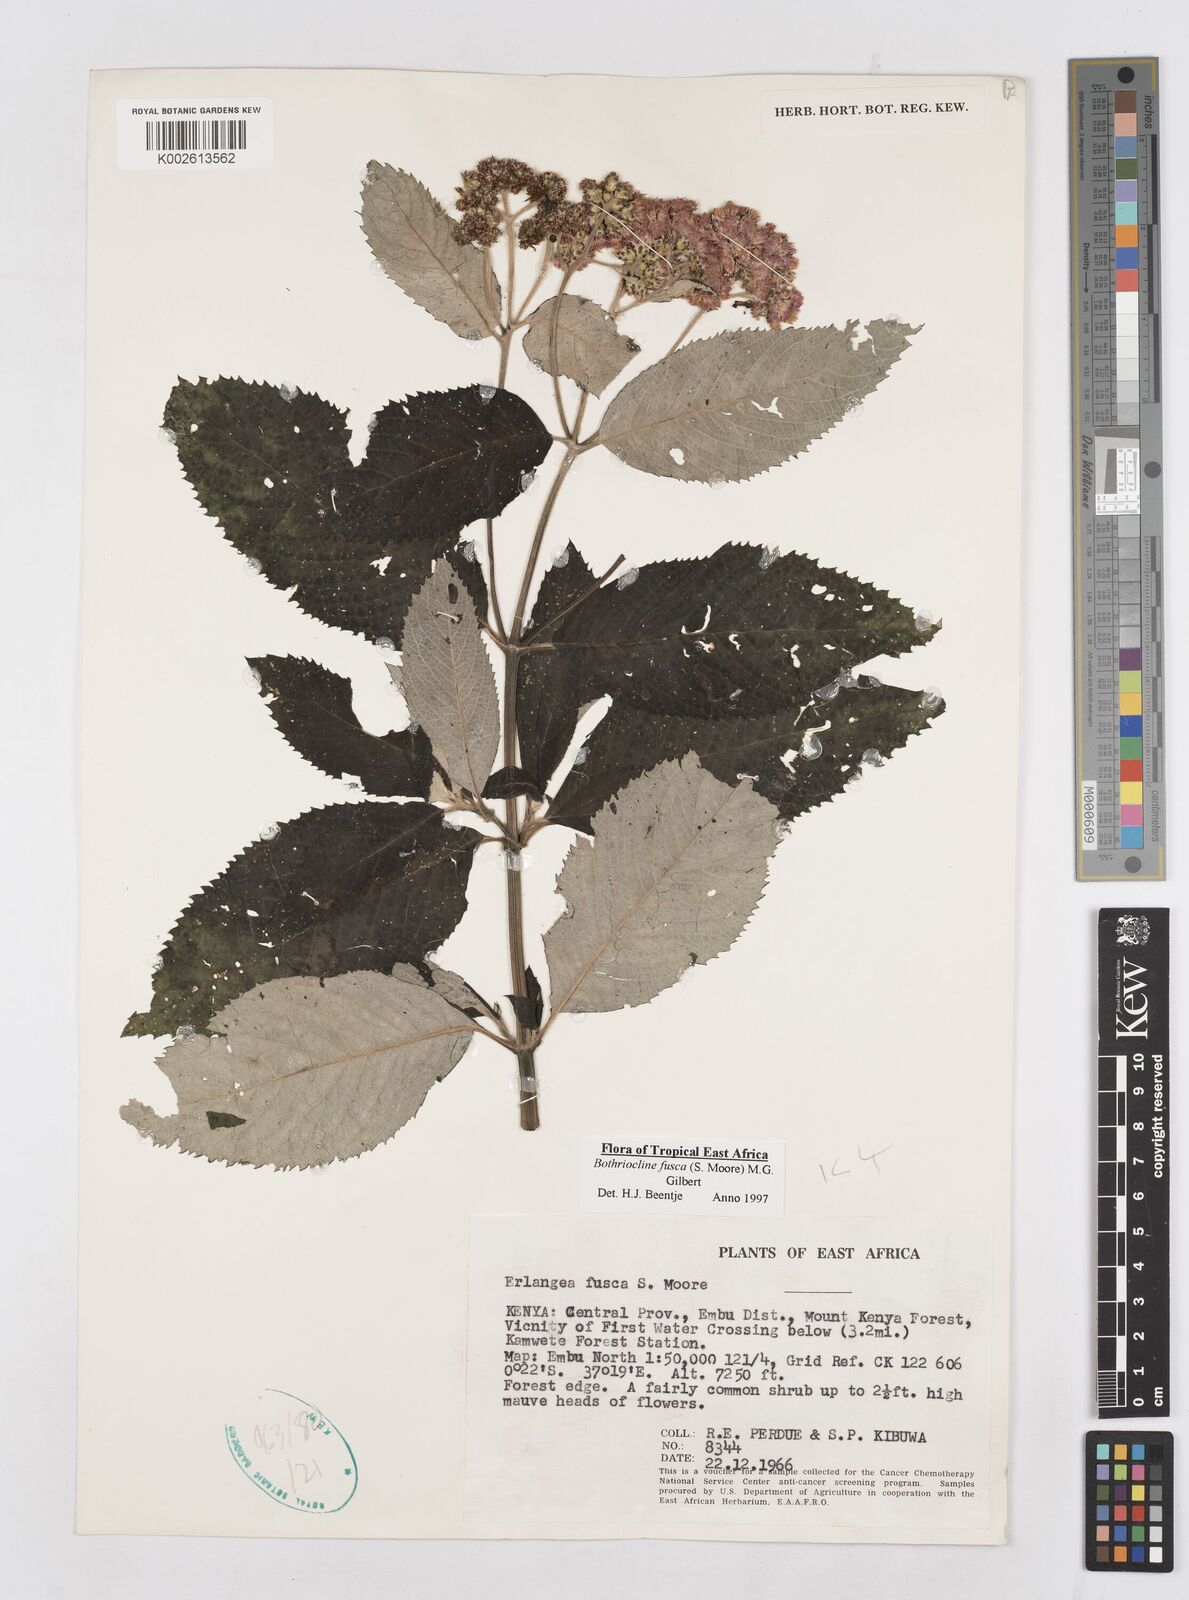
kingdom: Plantae
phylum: Tracheophyta
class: Magnoliopsida
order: Asterales
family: Asteraceae
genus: Bothriocline
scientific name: Bothriocline fusca
